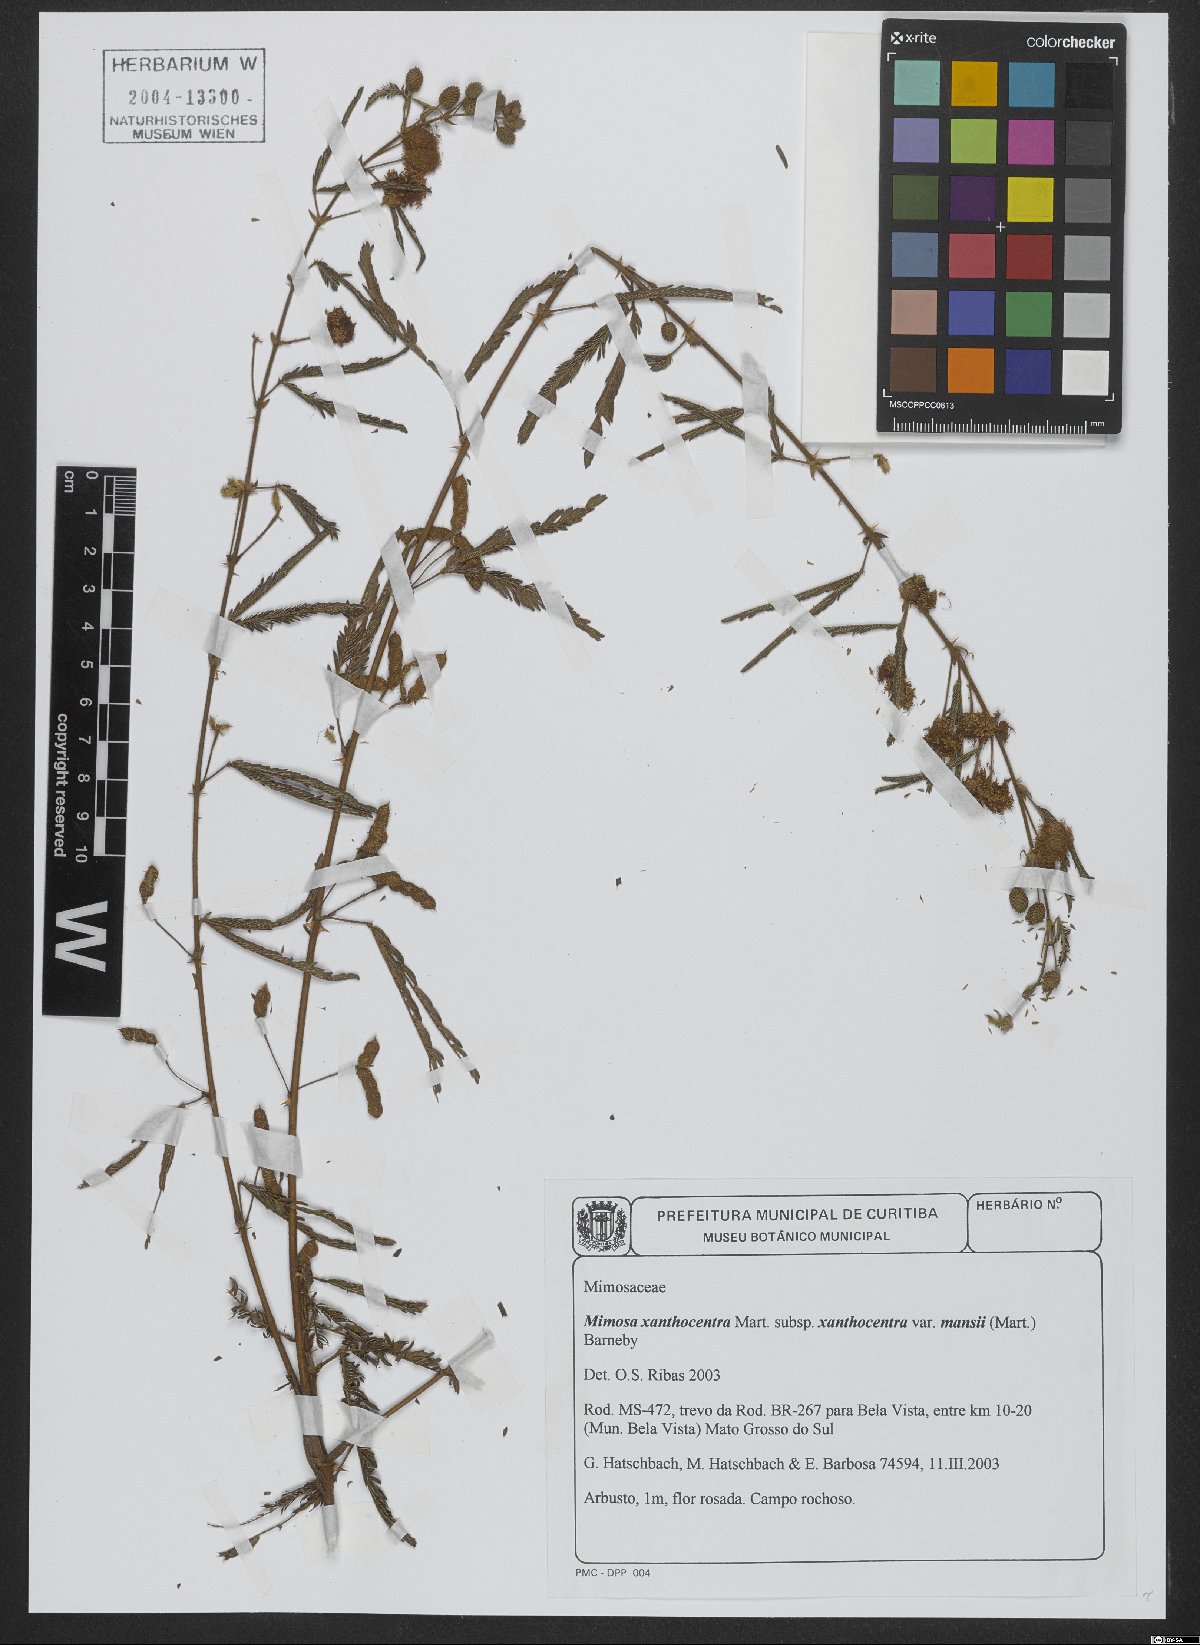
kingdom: Plantae
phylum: Tracheophyta
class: Magnoliopsida
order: Fabales
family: Fabaceae
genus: Mimosa
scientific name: Mimosa xanthocentra
